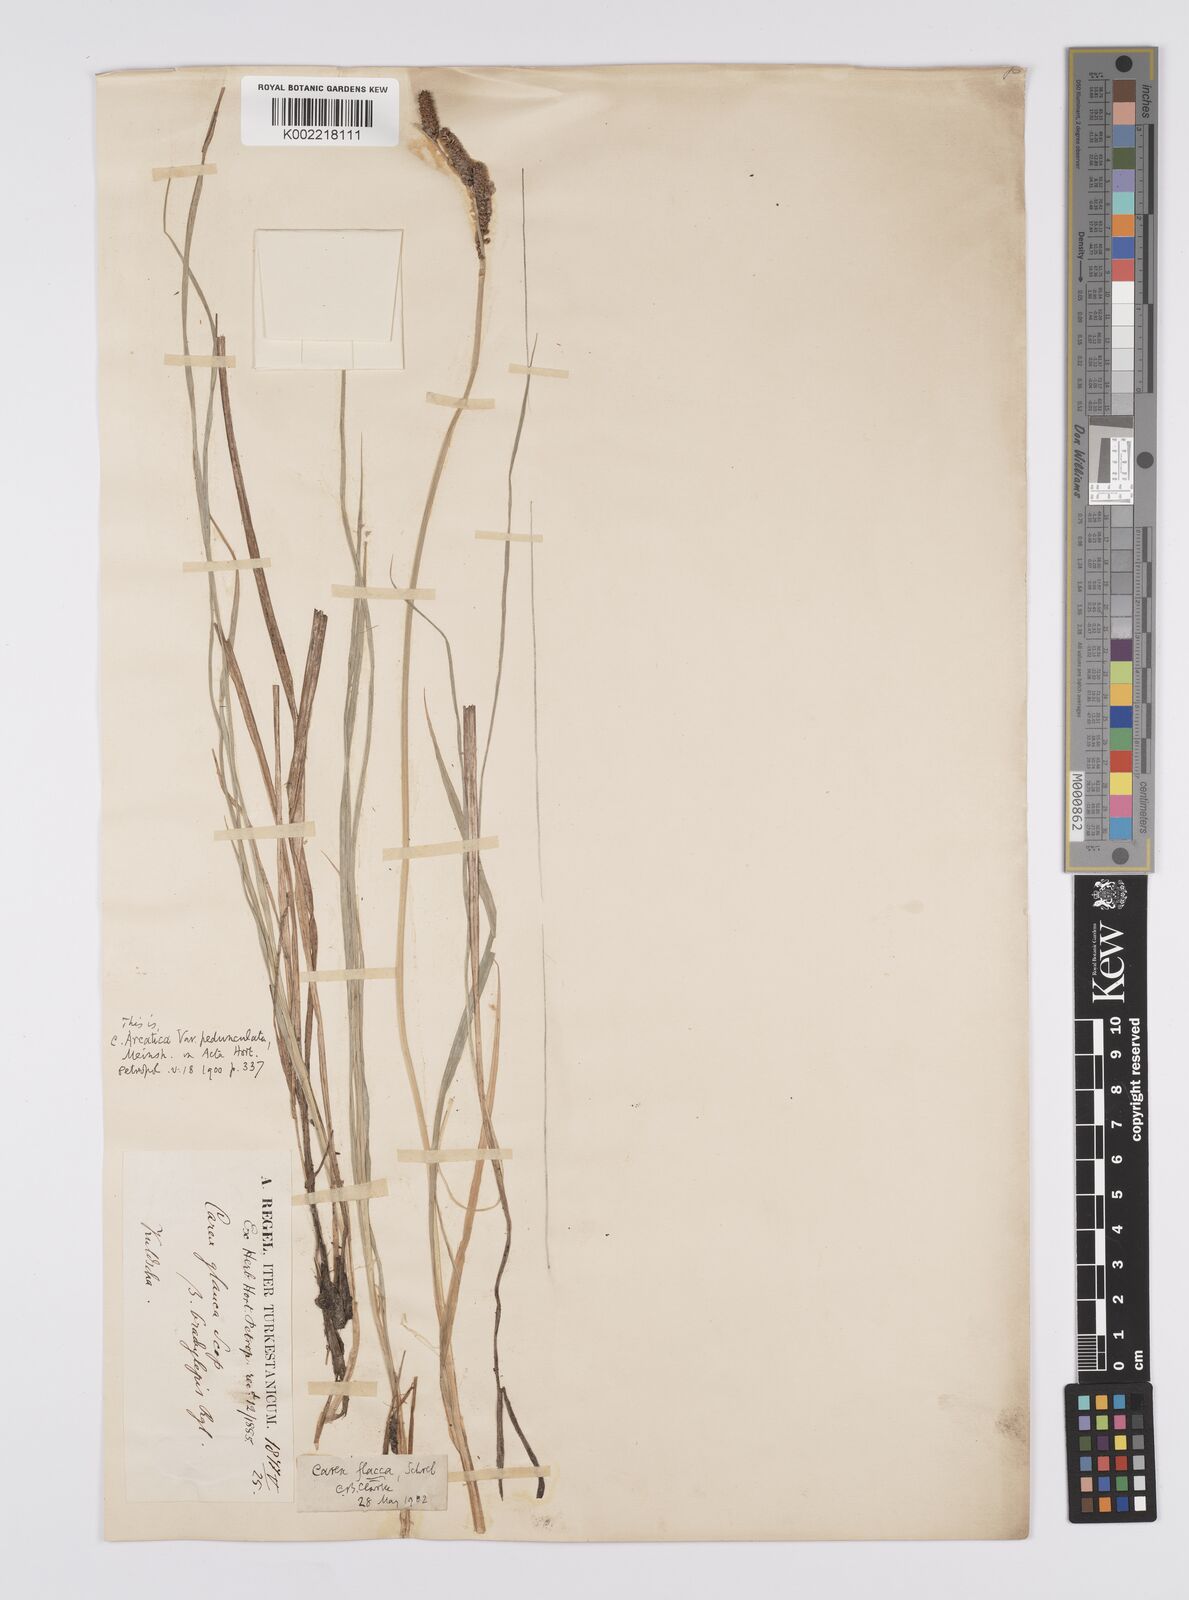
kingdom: Plantae
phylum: Tracheophyta
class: Liliopsida
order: Poales
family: Cyperaceae
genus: Carex
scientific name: Carex orbicularis
